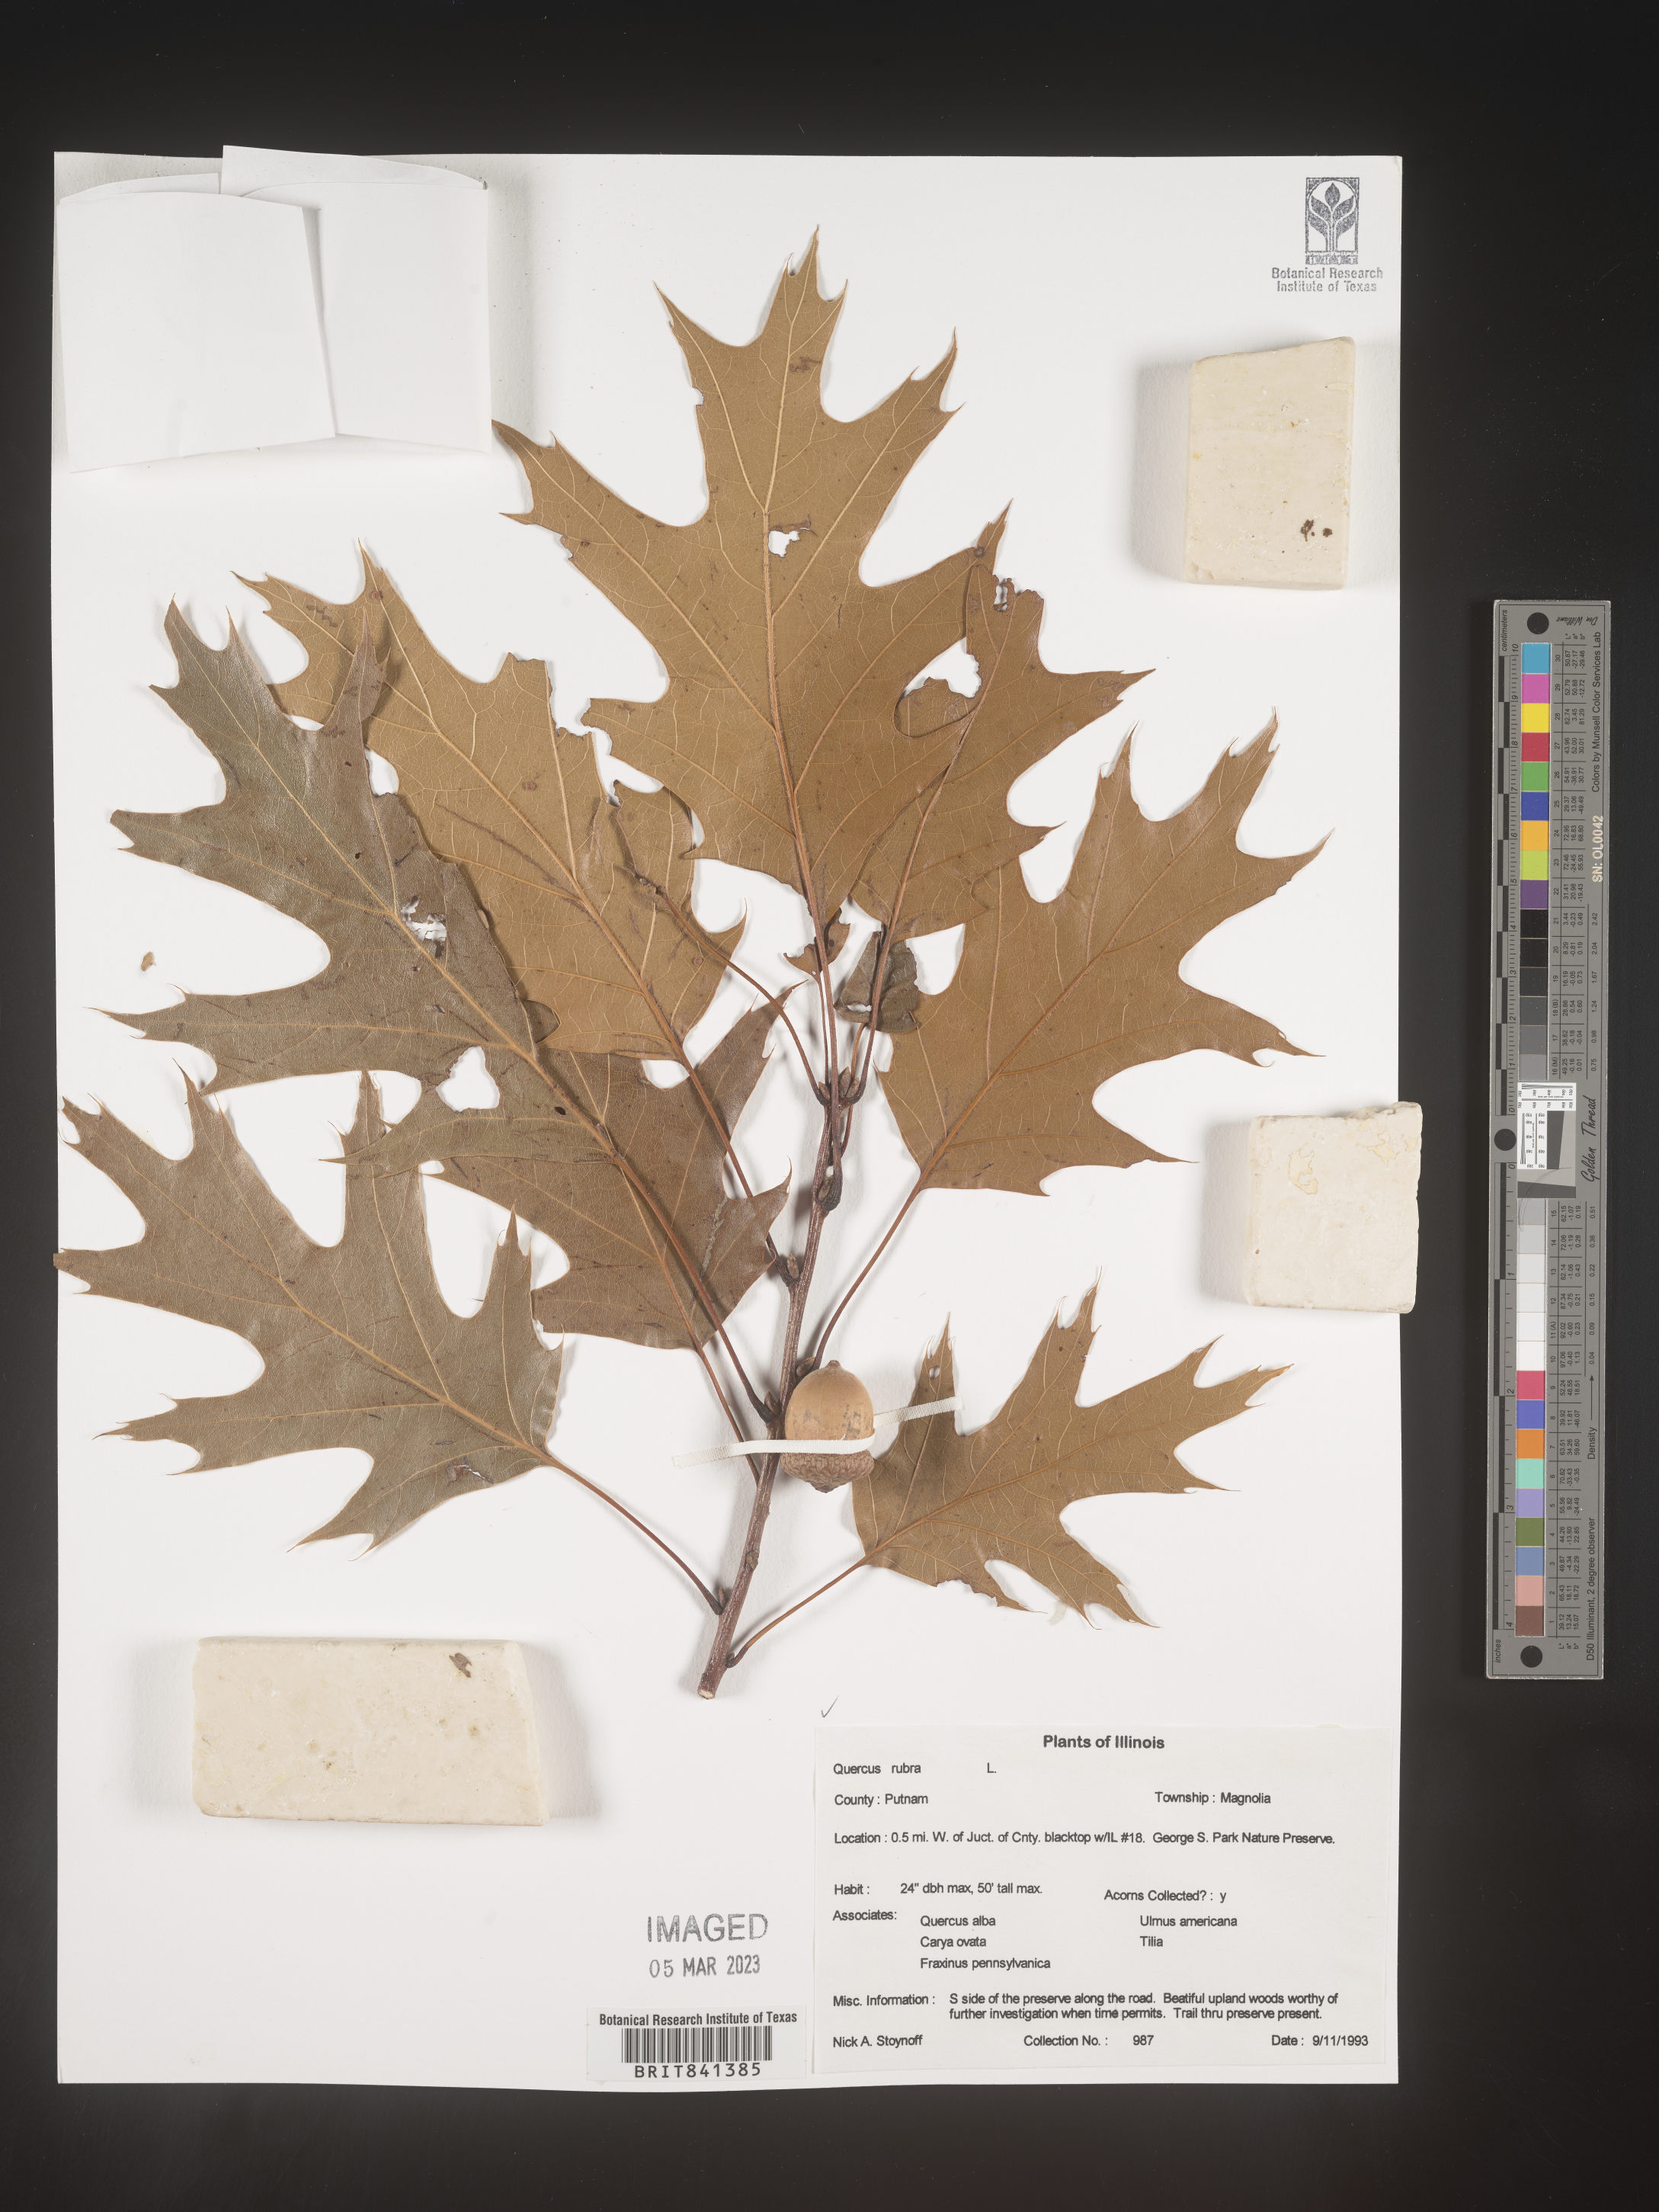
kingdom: Plantae
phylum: Tracheophyta
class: Magnoliopsida
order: Fagales
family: Fagaceae
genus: Quercus
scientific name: Quercus rubra
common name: Red oak
